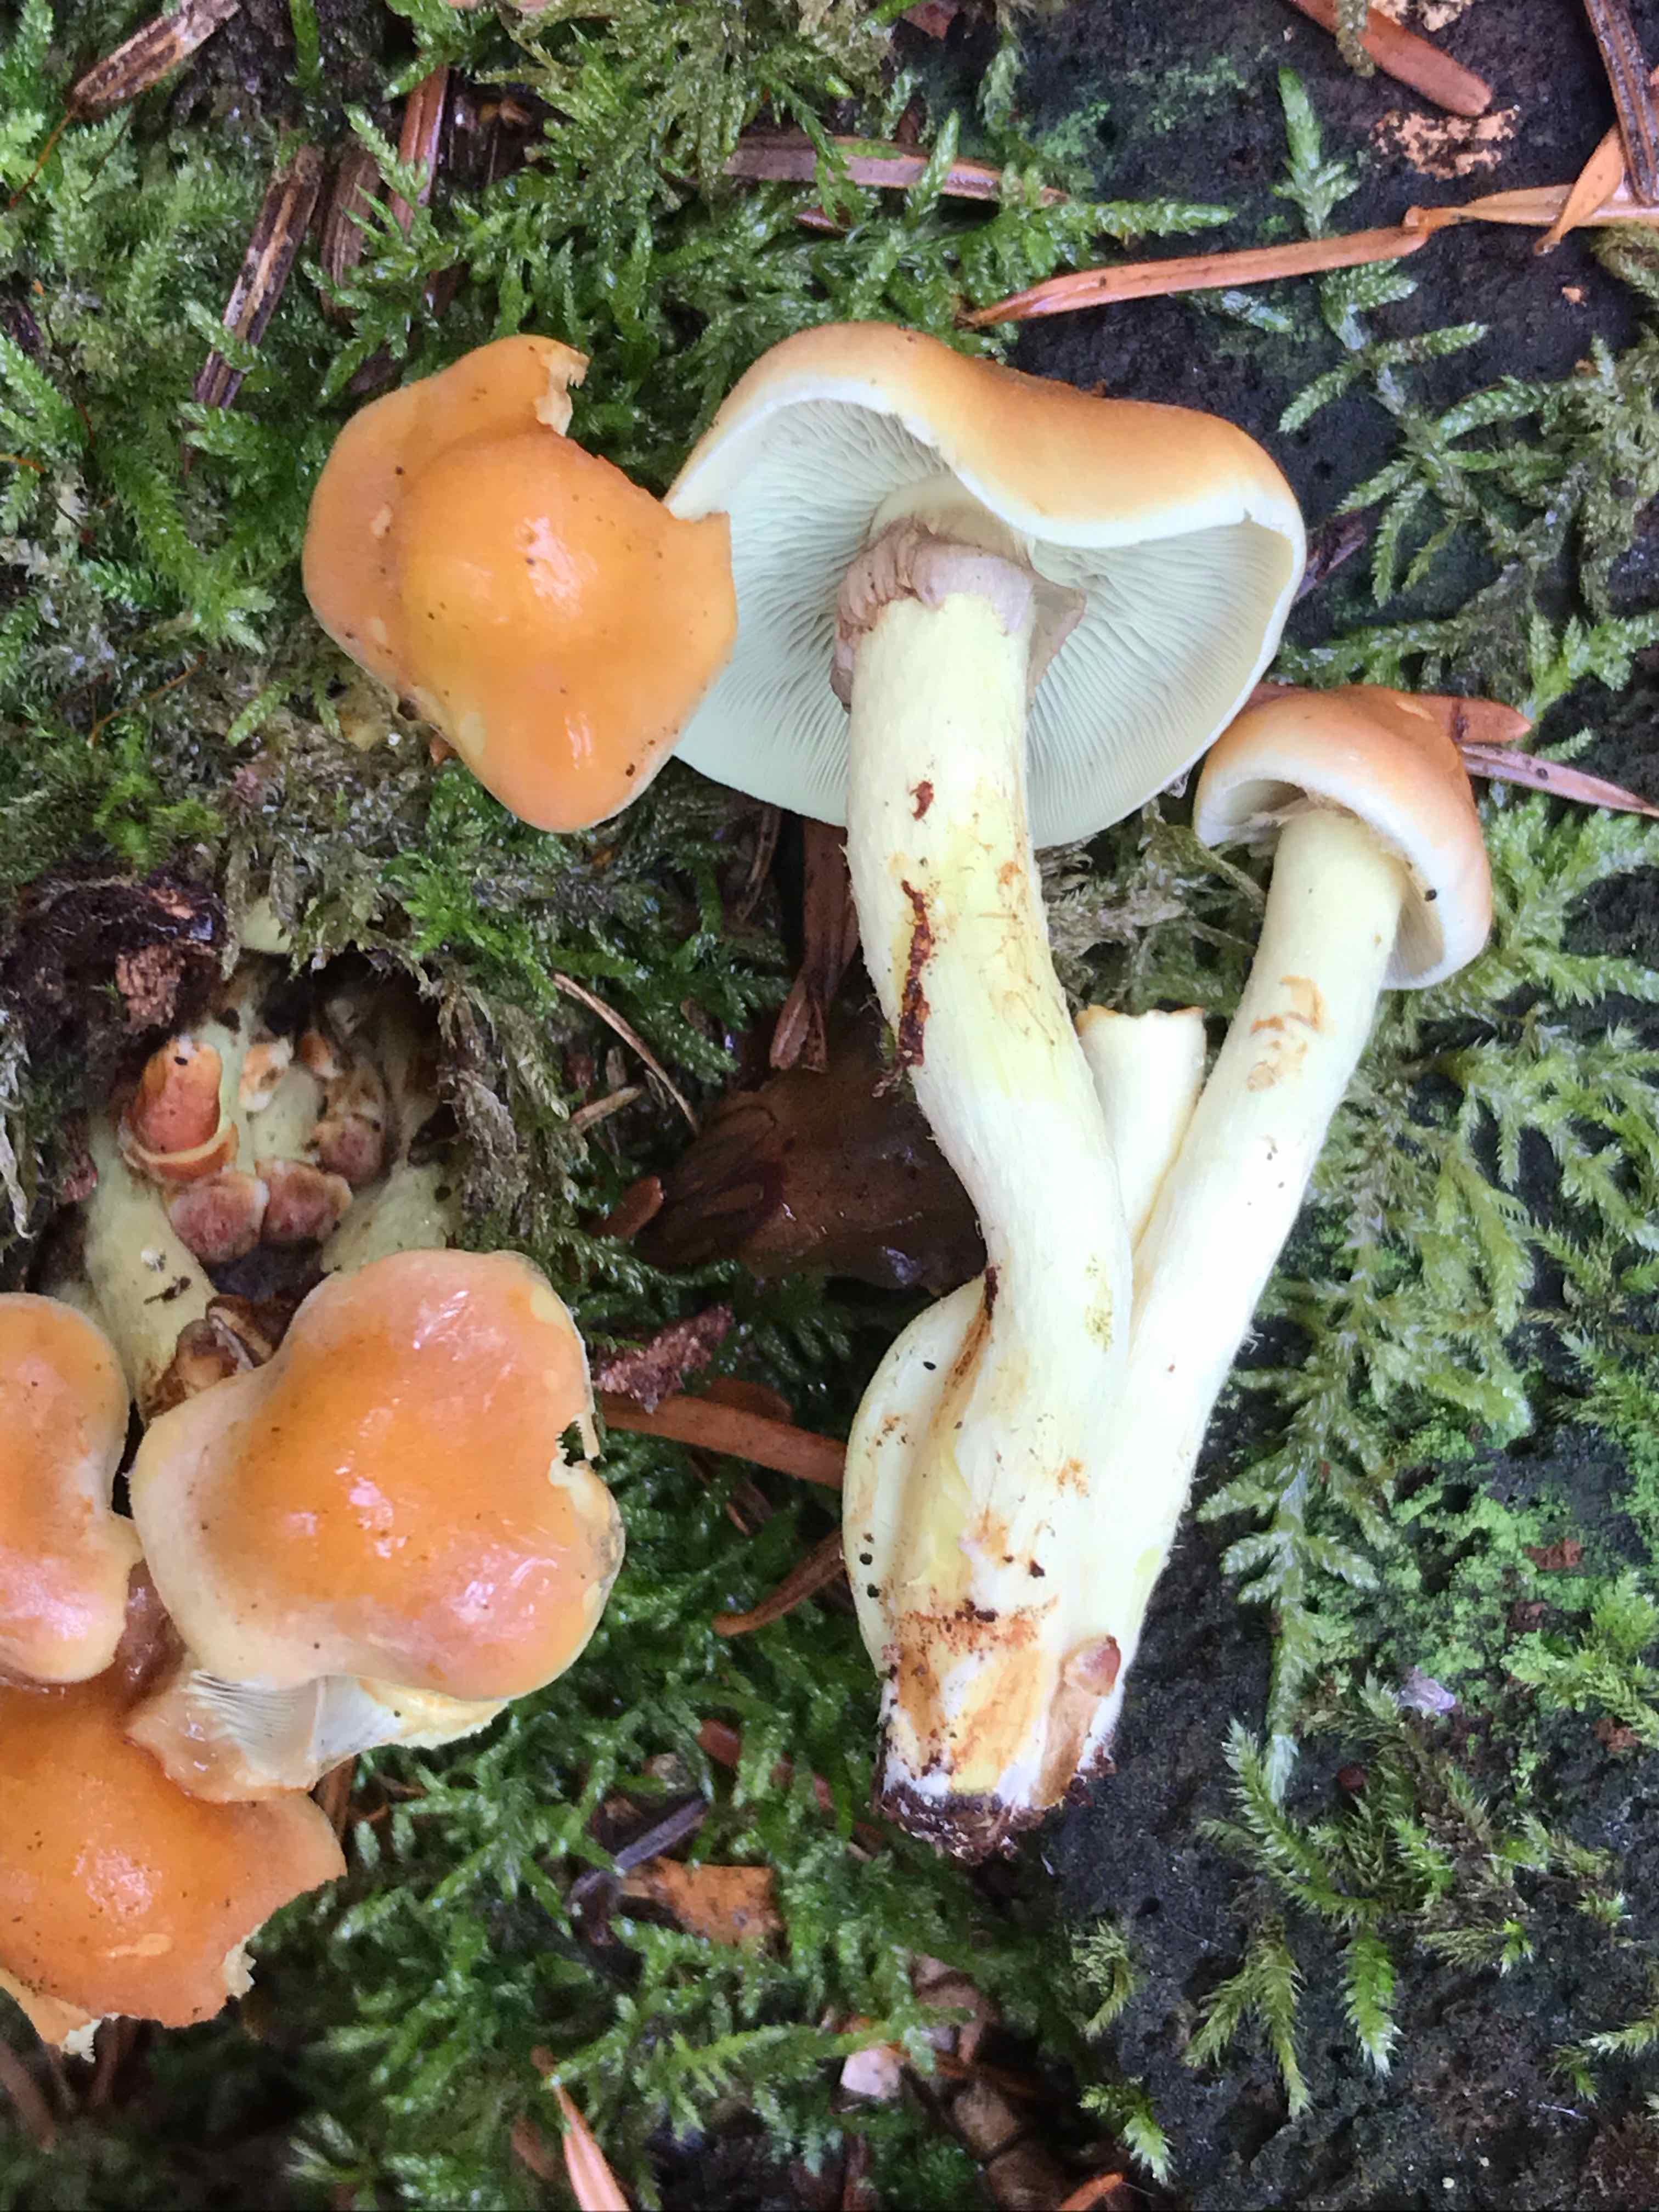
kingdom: Fungi
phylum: Basidiomycota
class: Agaricomycetes
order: Agaricales
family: Hymenogastraceae
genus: Gymnopilus
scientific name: Gymnopilus penetrans
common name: plettet flammehat
